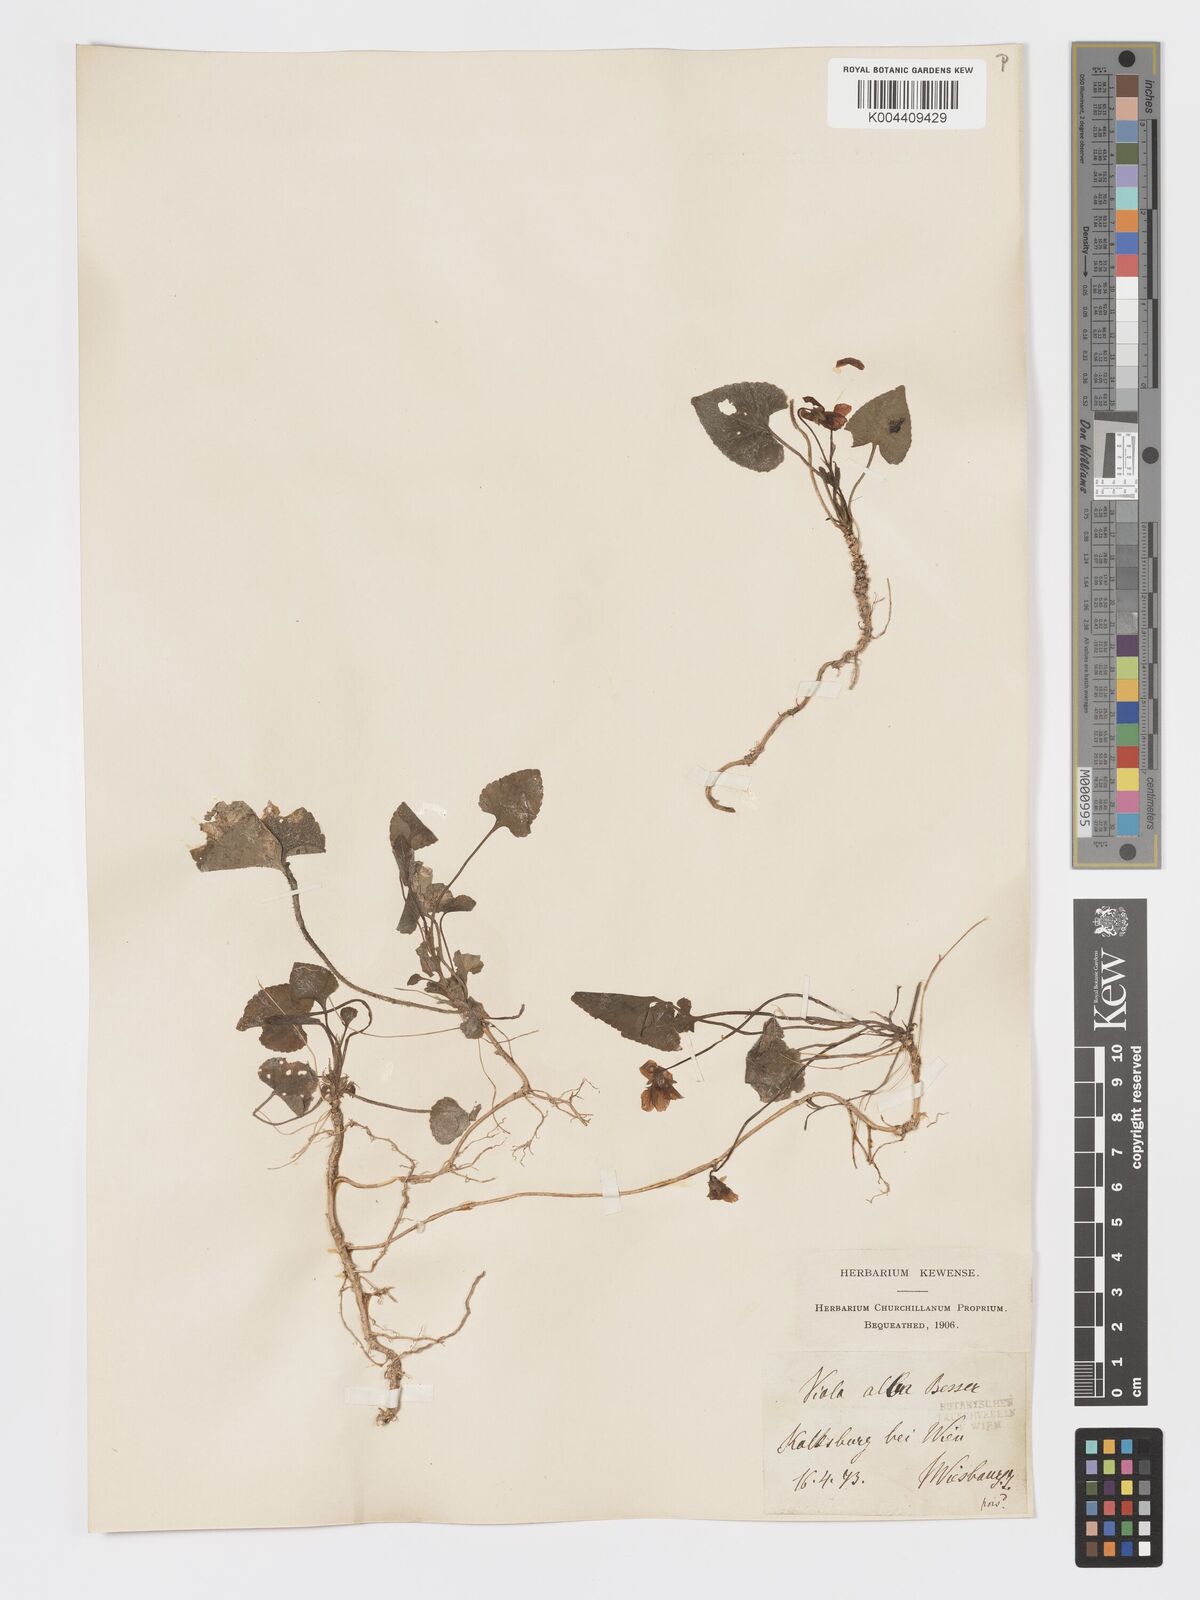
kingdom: Plantae
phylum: Tracheophyta
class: Magnoliopsida
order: Malpighiales
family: Violaceae
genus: Viola
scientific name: Viola kalksburgensis
